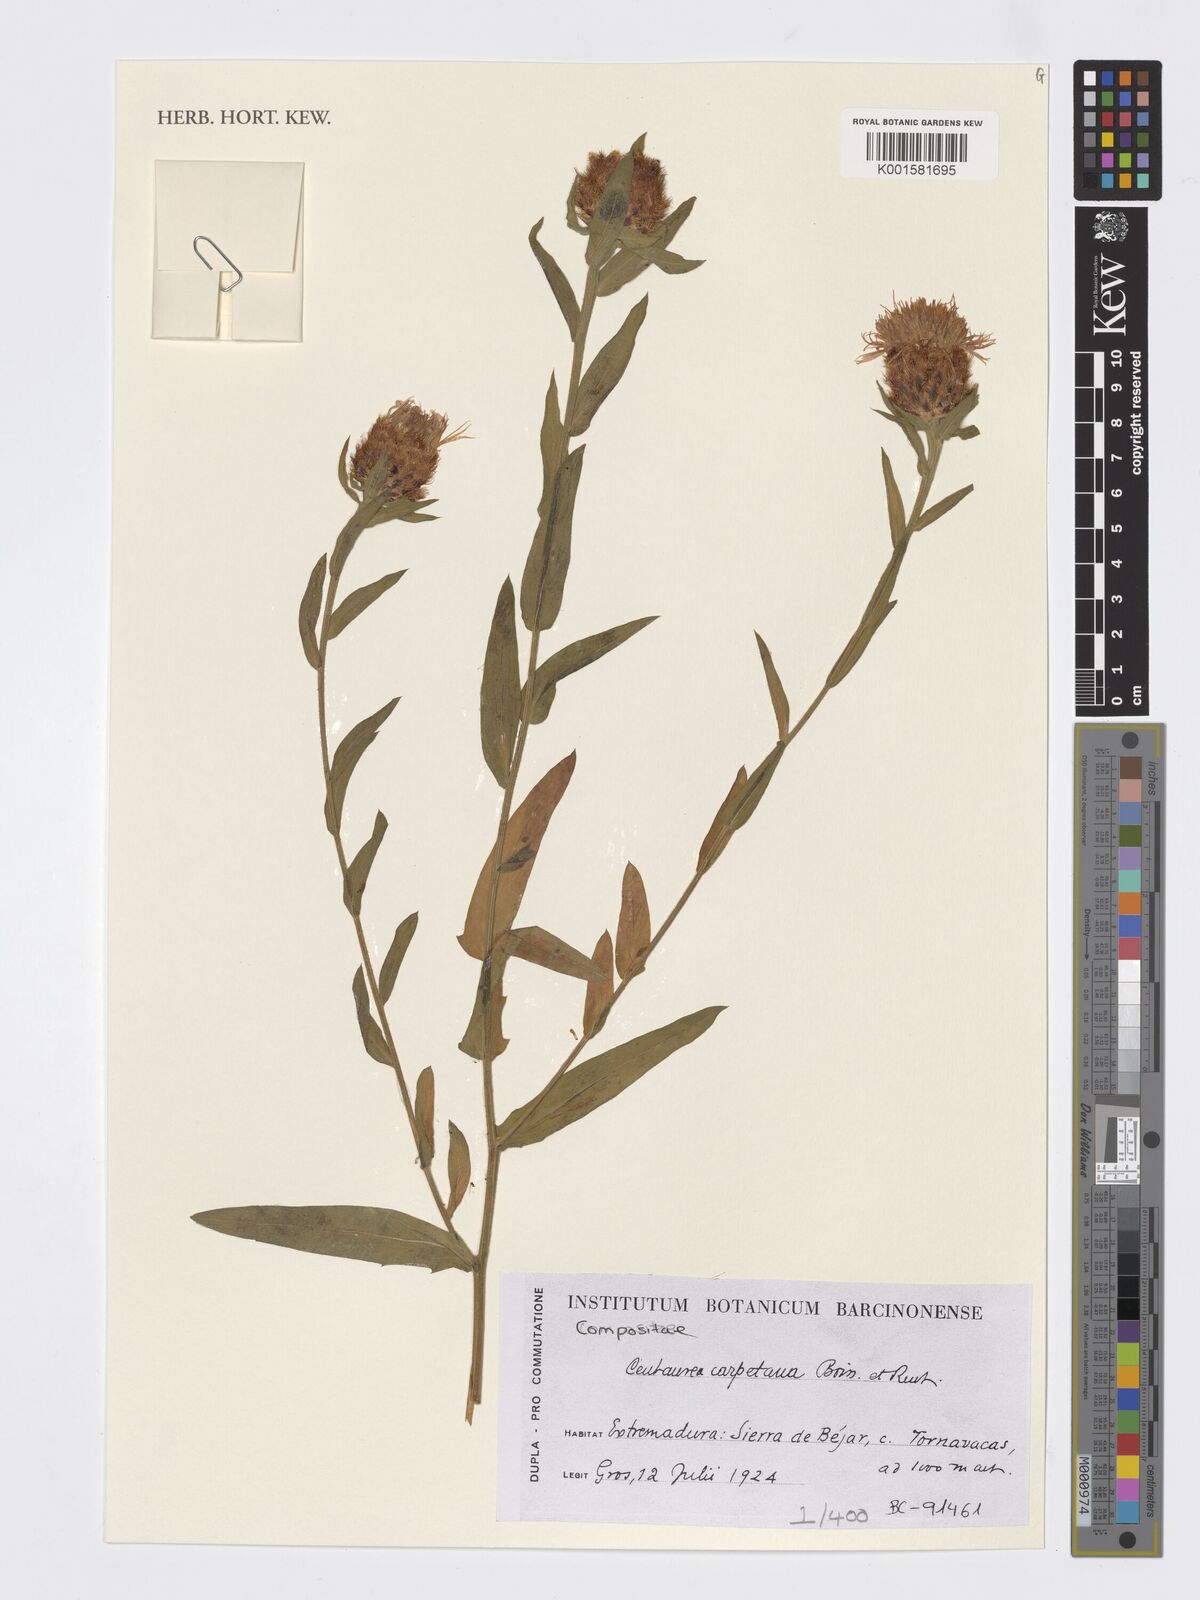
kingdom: Plantae
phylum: Tracheophyta
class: Magnoliopsida
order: Asterales
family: Asteraceae
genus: Centaurea
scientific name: Centaurea nigra
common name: Lesser knapweed
